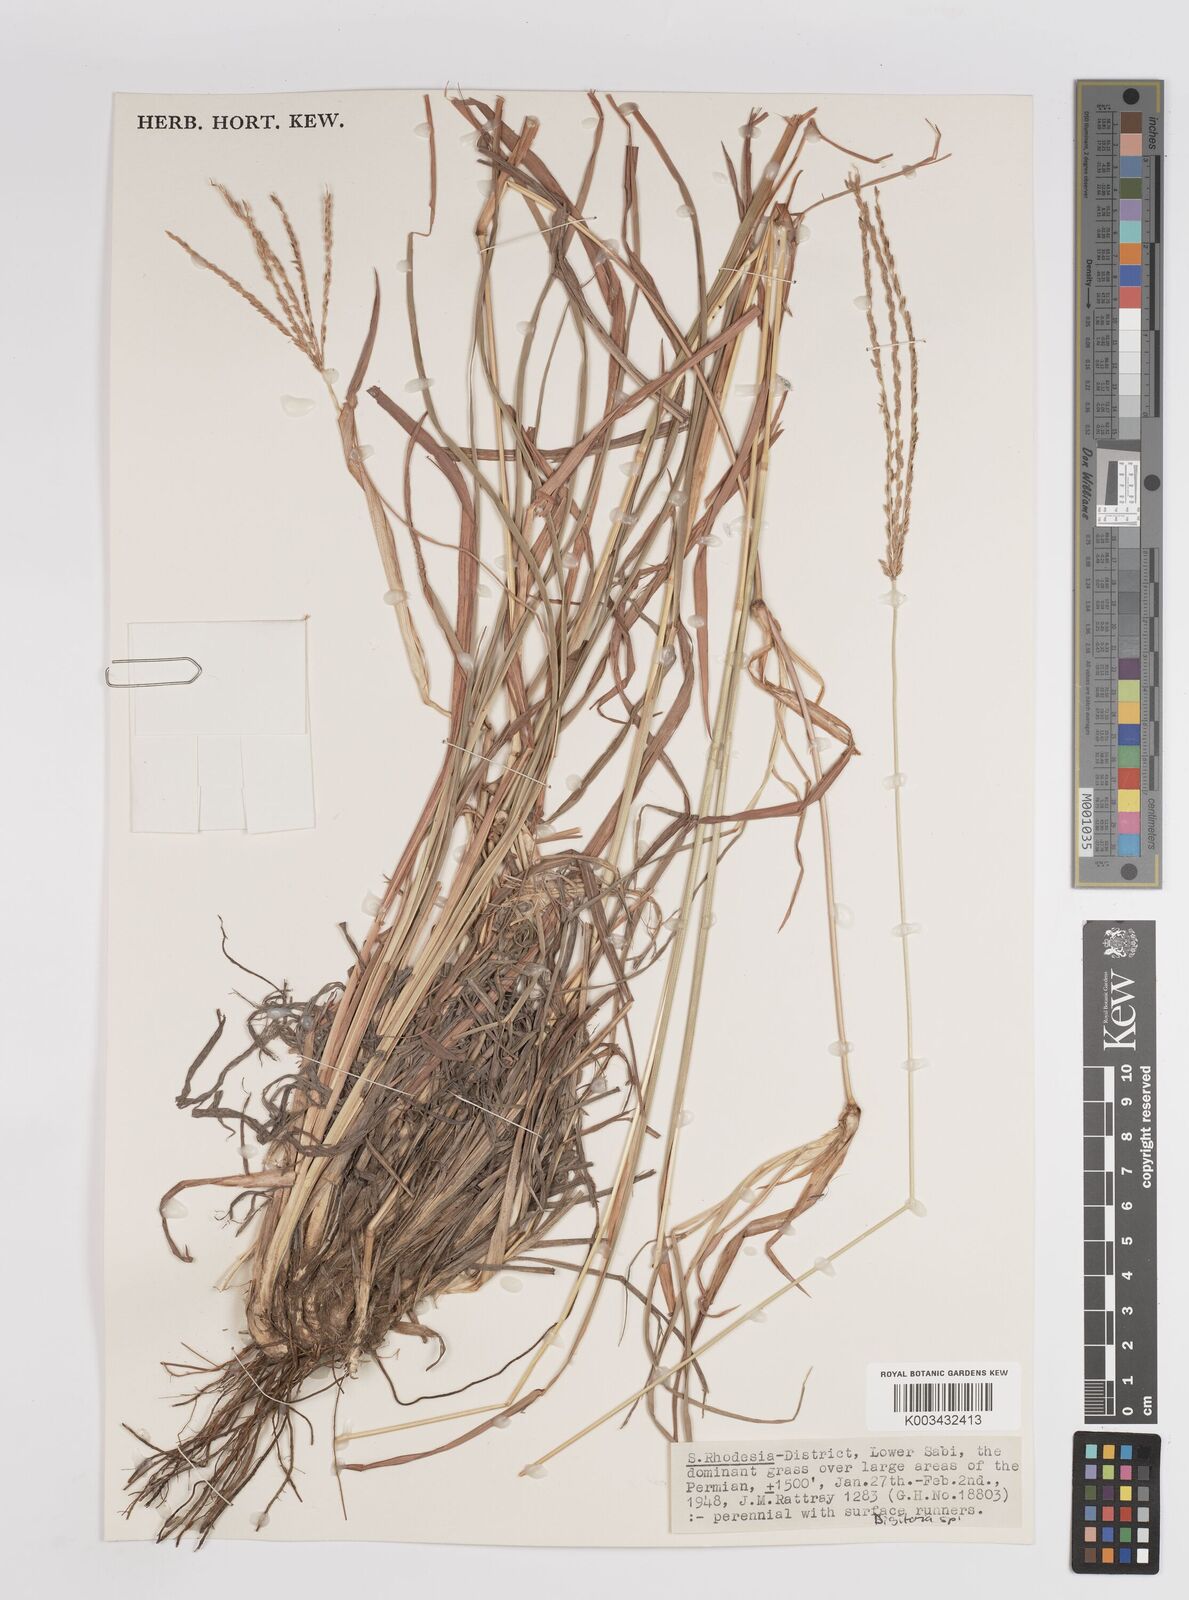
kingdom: Plantae
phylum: Tracheophyta
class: Liliopsida
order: Poales
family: Poaceae
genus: Digitaria
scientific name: Digitaria eriantha
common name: Digitgrass
